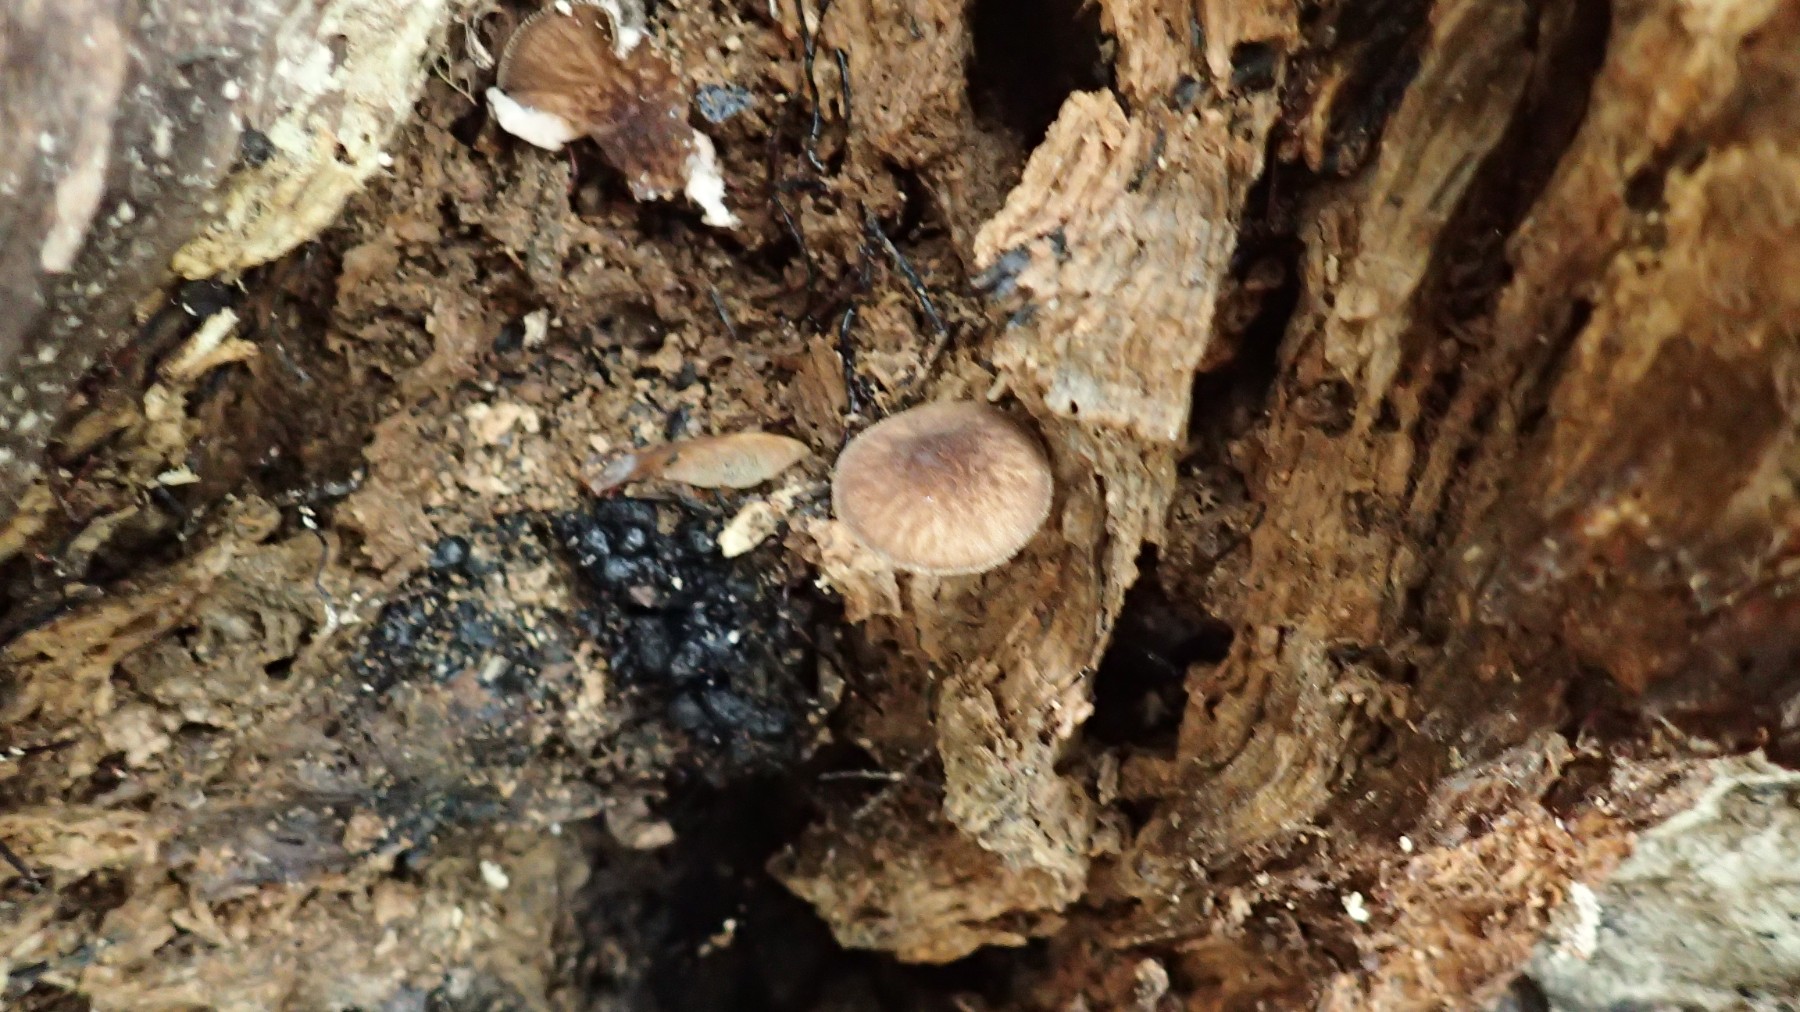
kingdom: Fungi
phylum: Basidiomycota
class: Agaricomycetes
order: Agaricales
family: Pluteaceae
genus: Pluteus
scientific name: Pluteus umbrosus
